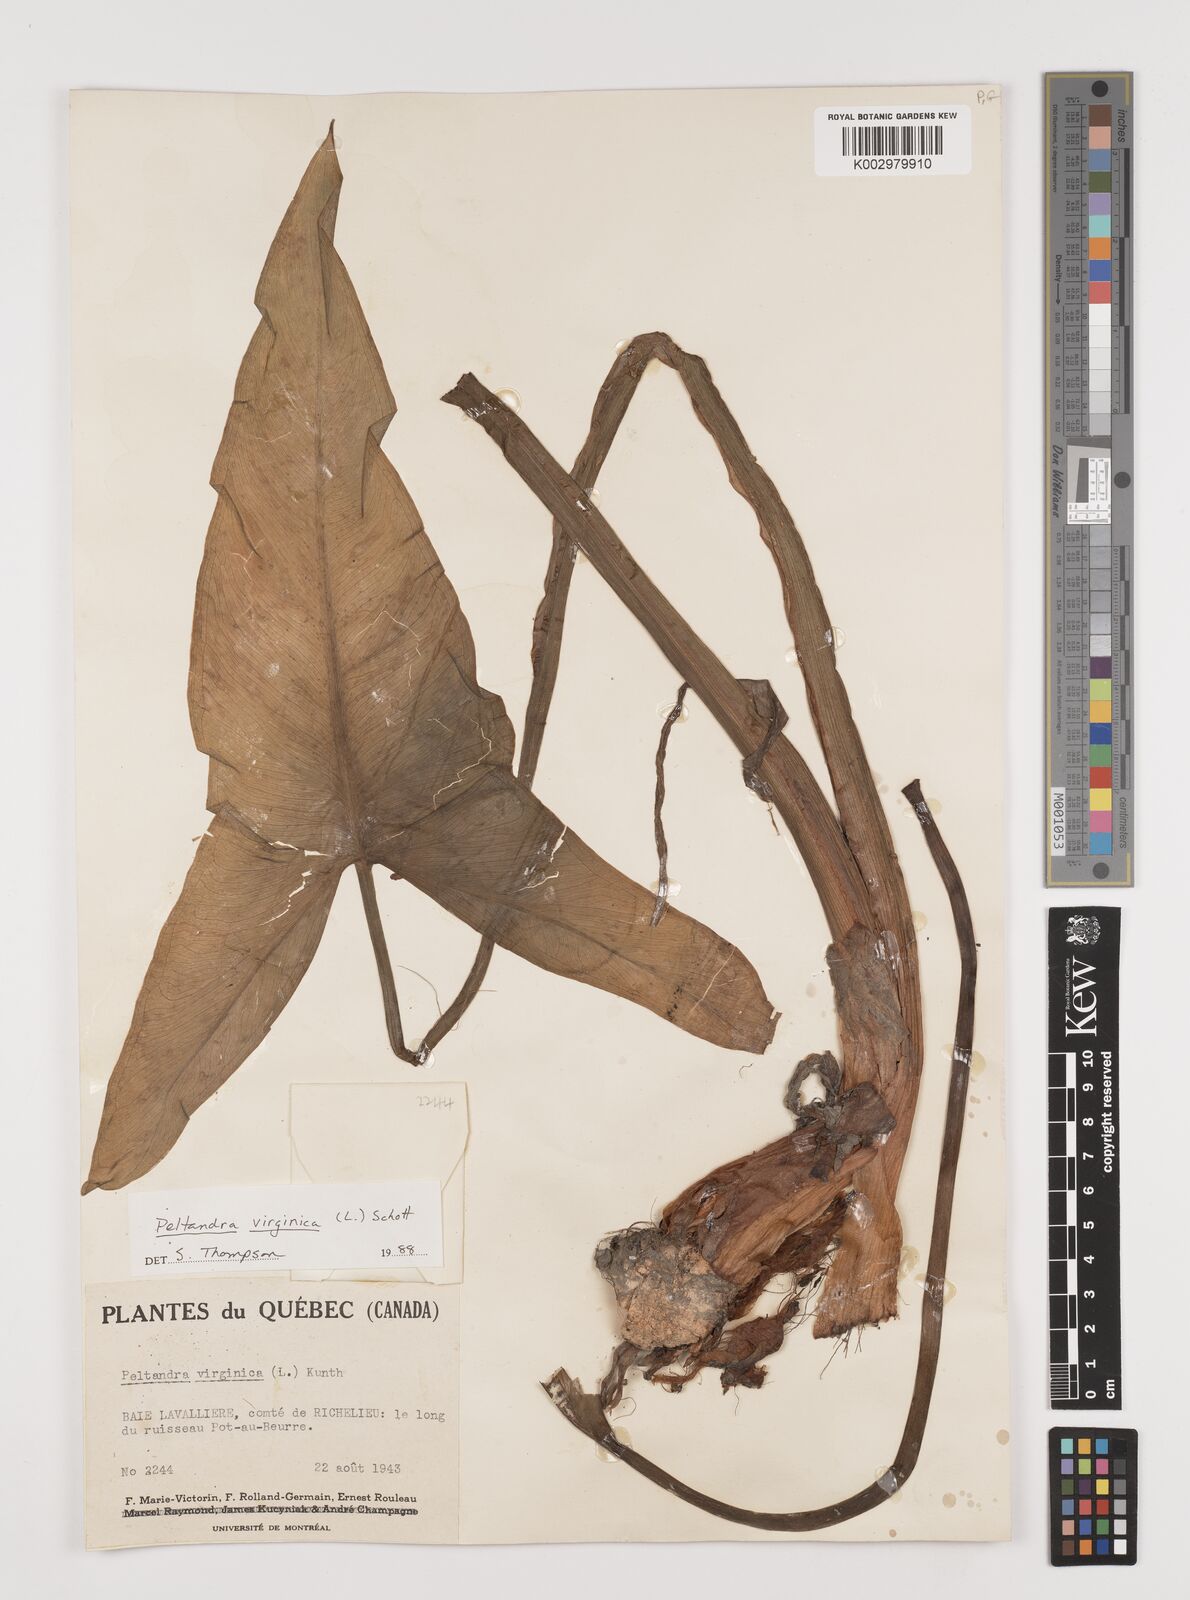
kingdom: Plantae
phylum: Tracheophyta
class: Liliopsida
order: Alismatales
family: Araceae
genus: Peltandra
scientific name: Peltandra virginica
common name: Arrow arum
